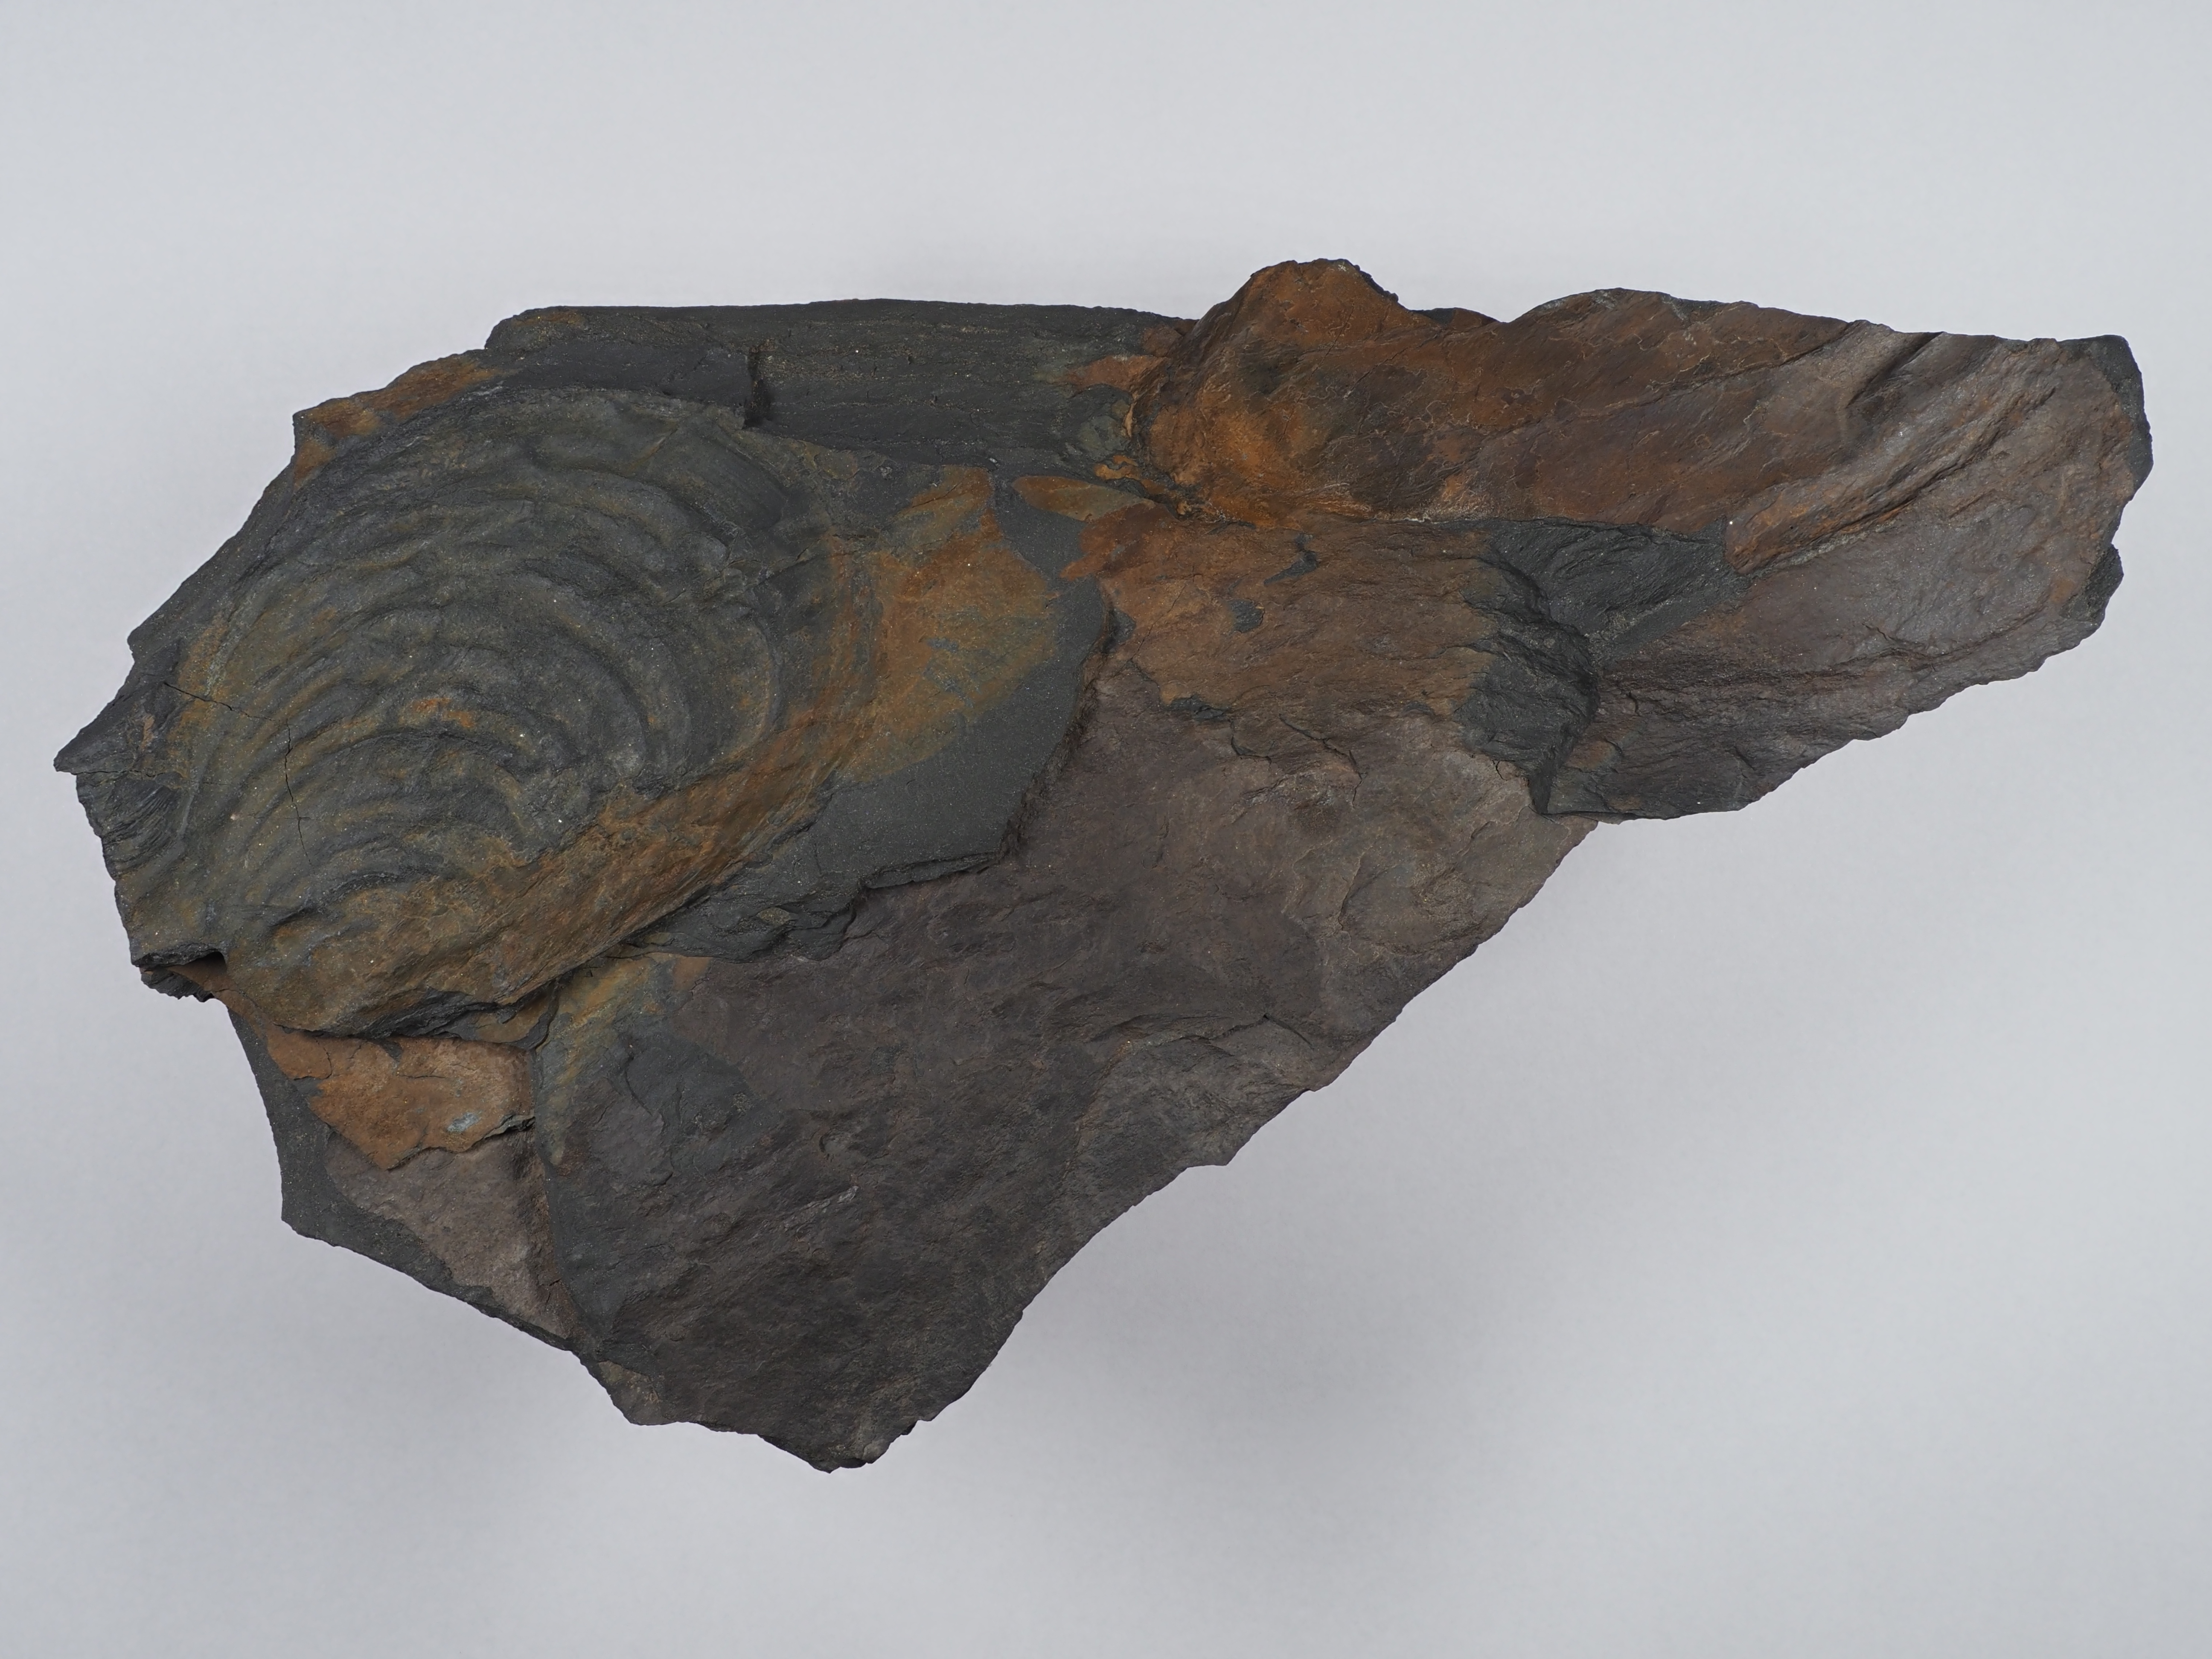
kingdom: Animalia
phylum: Mollusca
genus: Klinoptera
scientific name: Klinoptera
